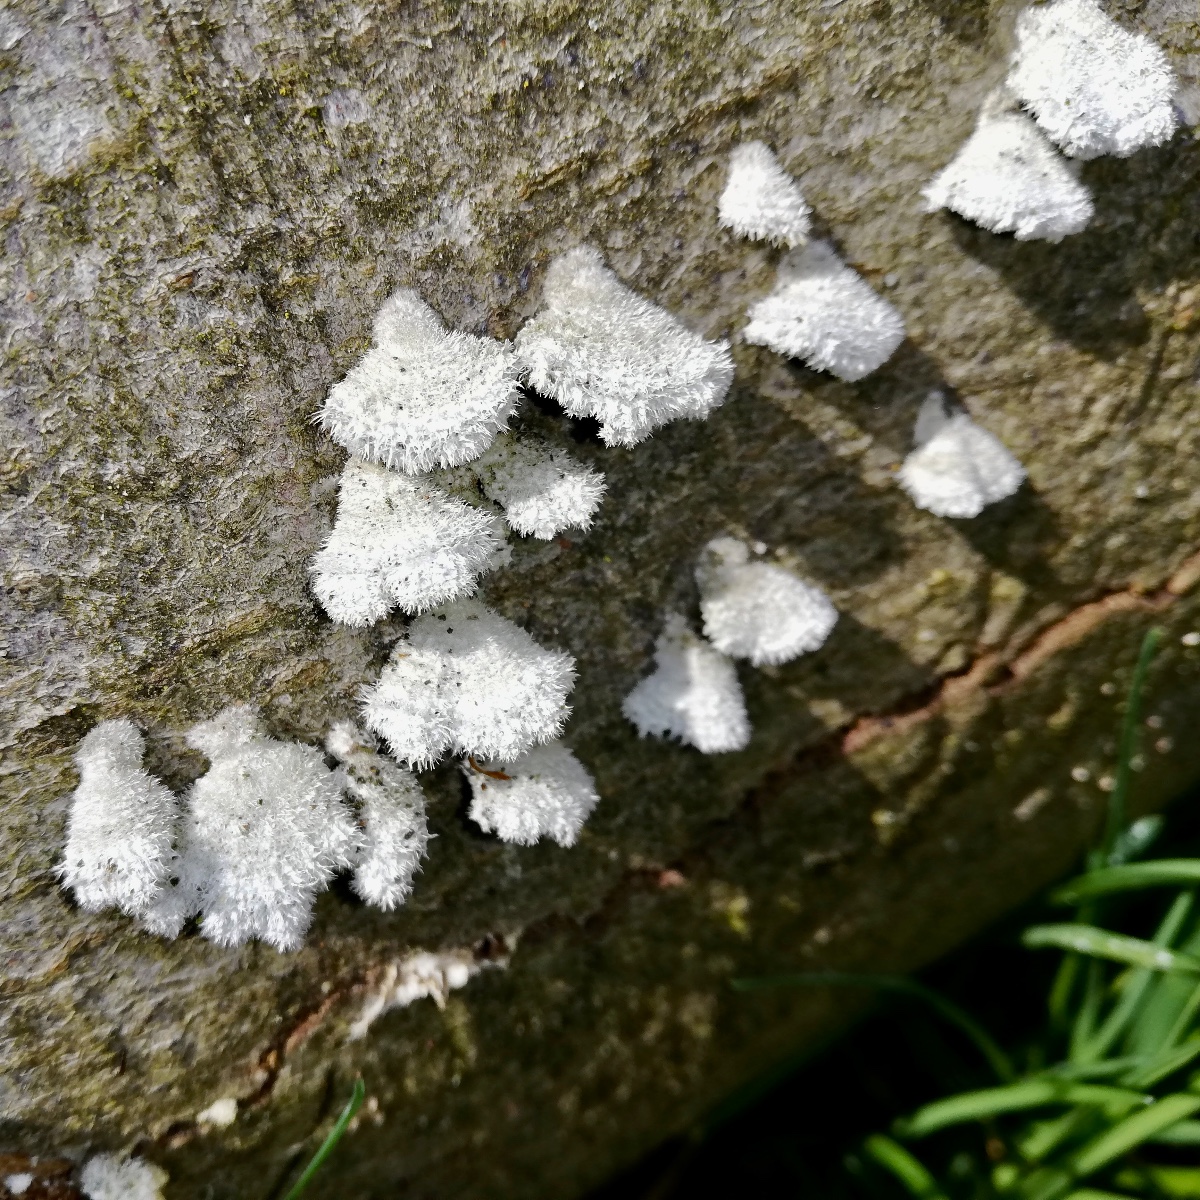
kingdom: Fungi
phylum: Basidiomycota
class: Agaricomycetes
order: Agaricales
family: Schizophyllaceae
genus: Schizophyllum
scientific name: Schizophyllum commune
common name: kløvblad
